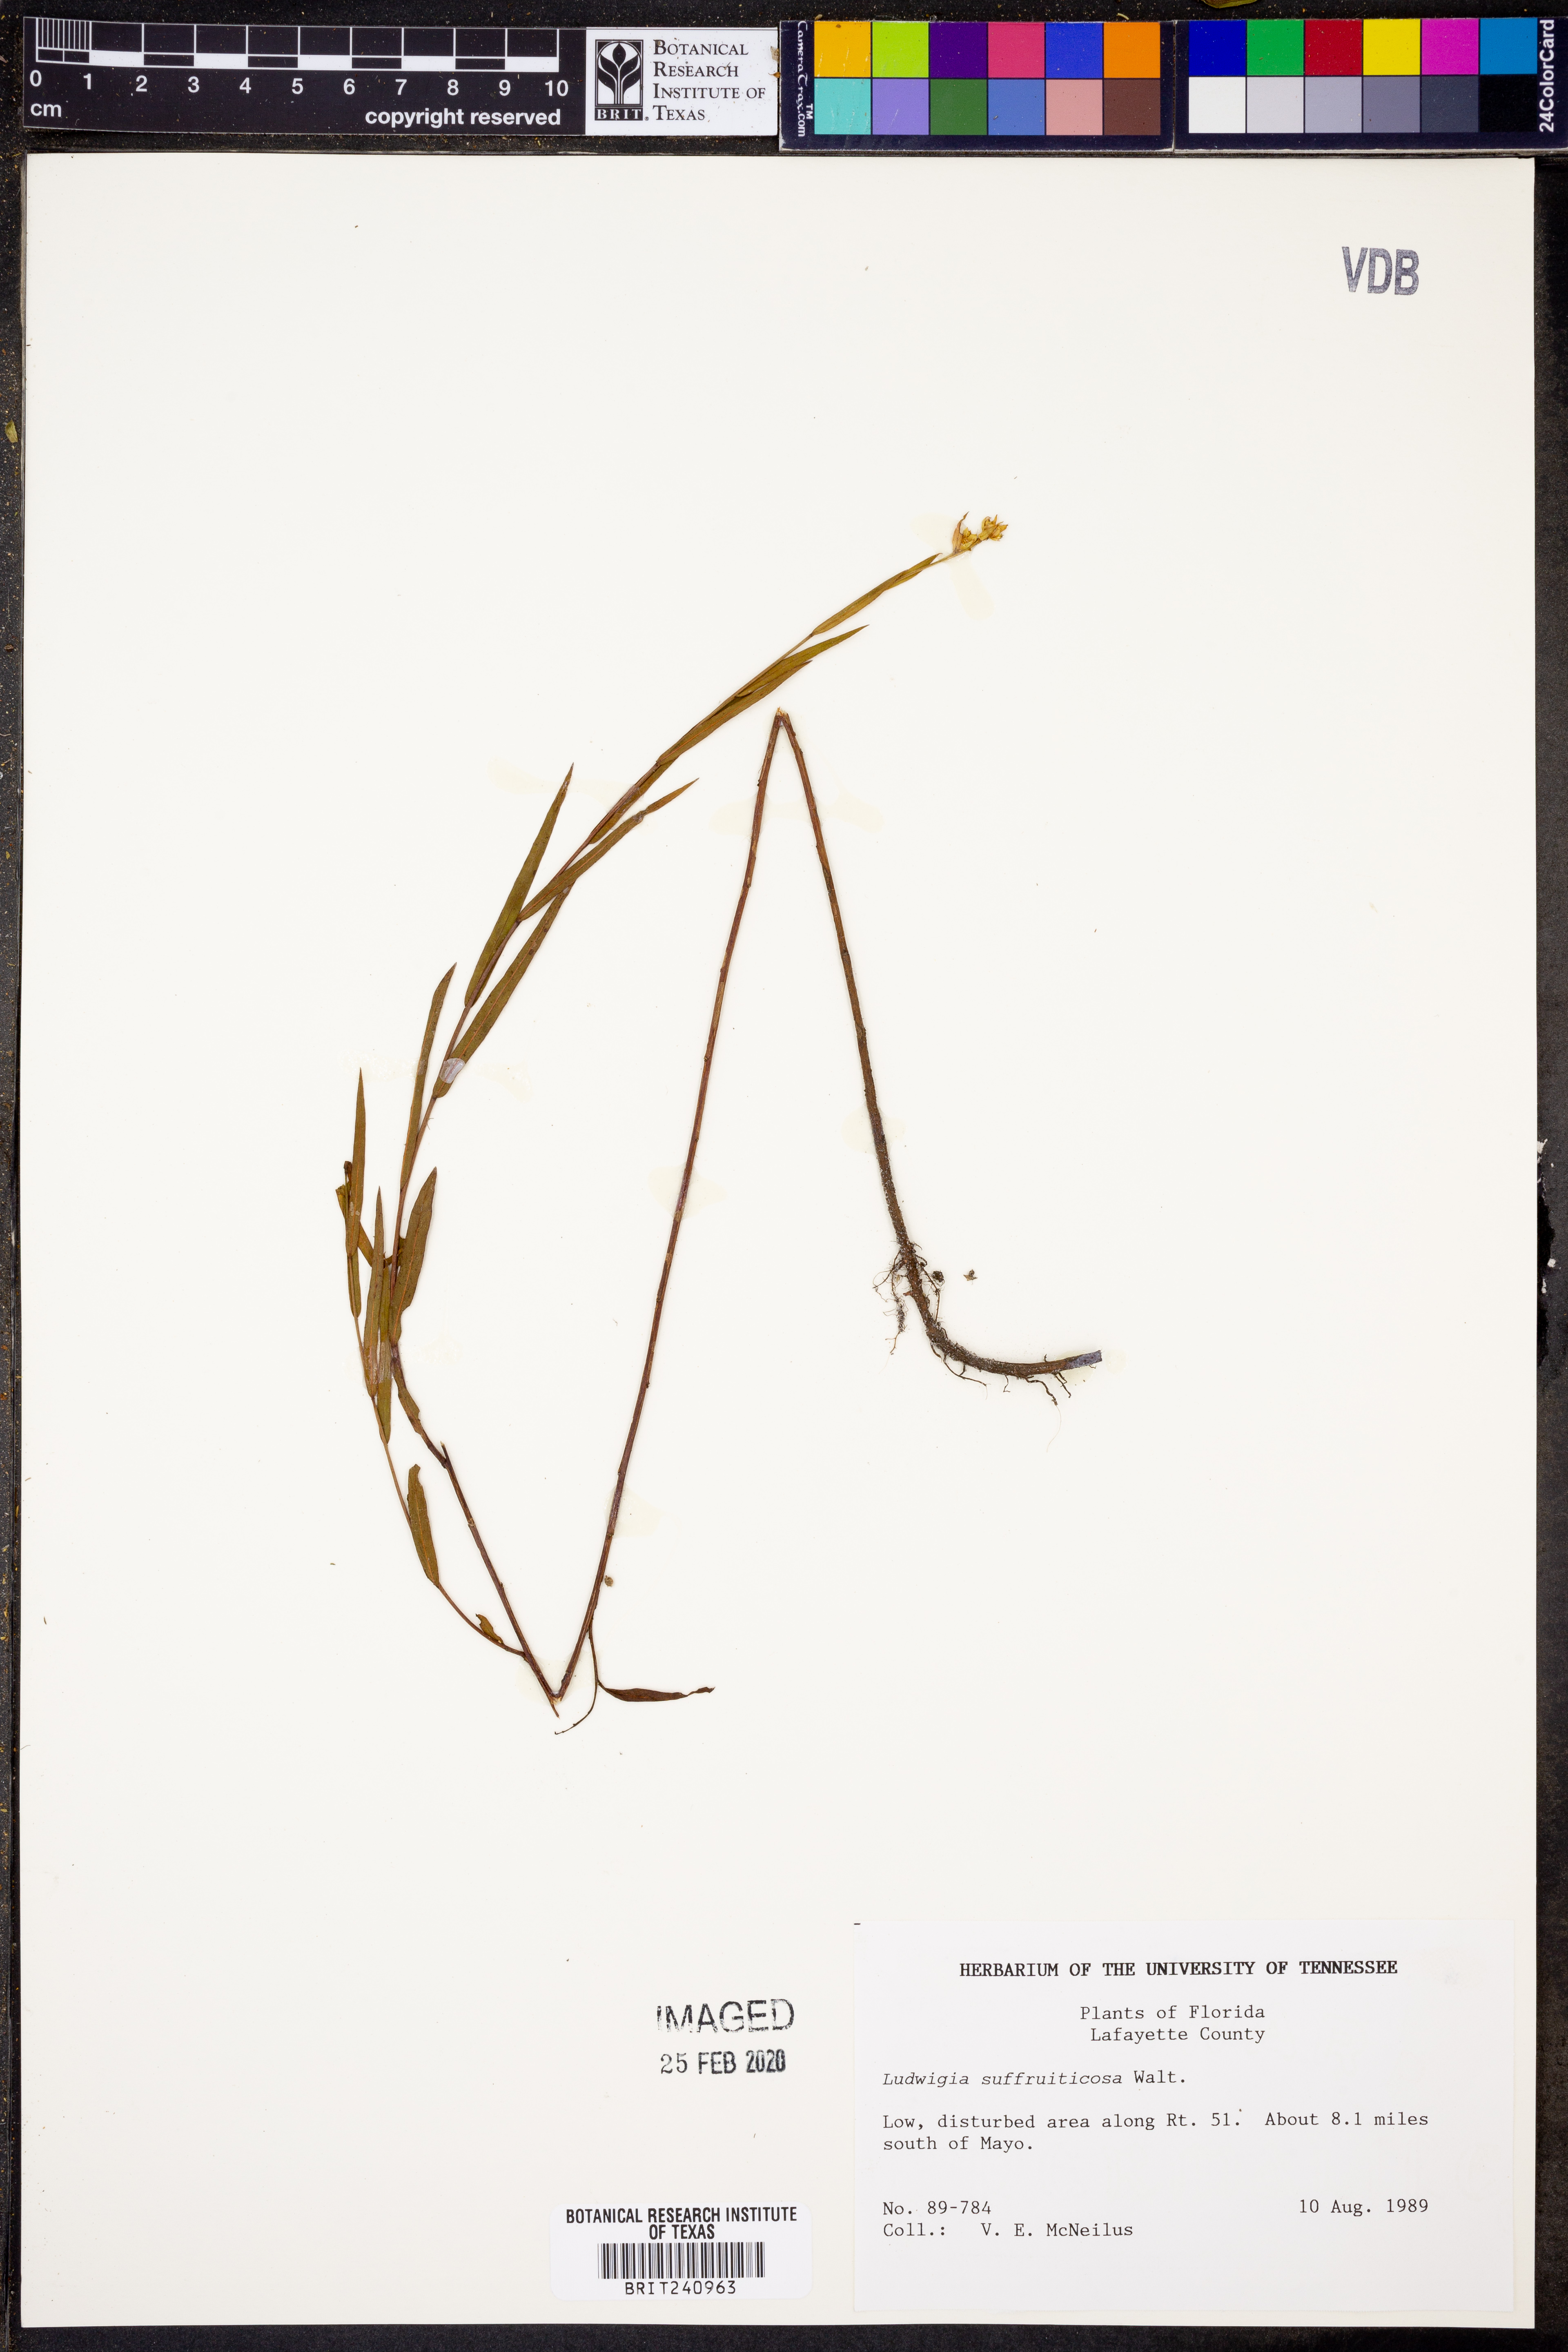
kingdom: Plantae
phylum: Tracheophyta
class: Magnoliopsida
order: Myrtales
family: Onagraceae
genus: Ludwigia
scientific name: Ludwigia suffruticosa
